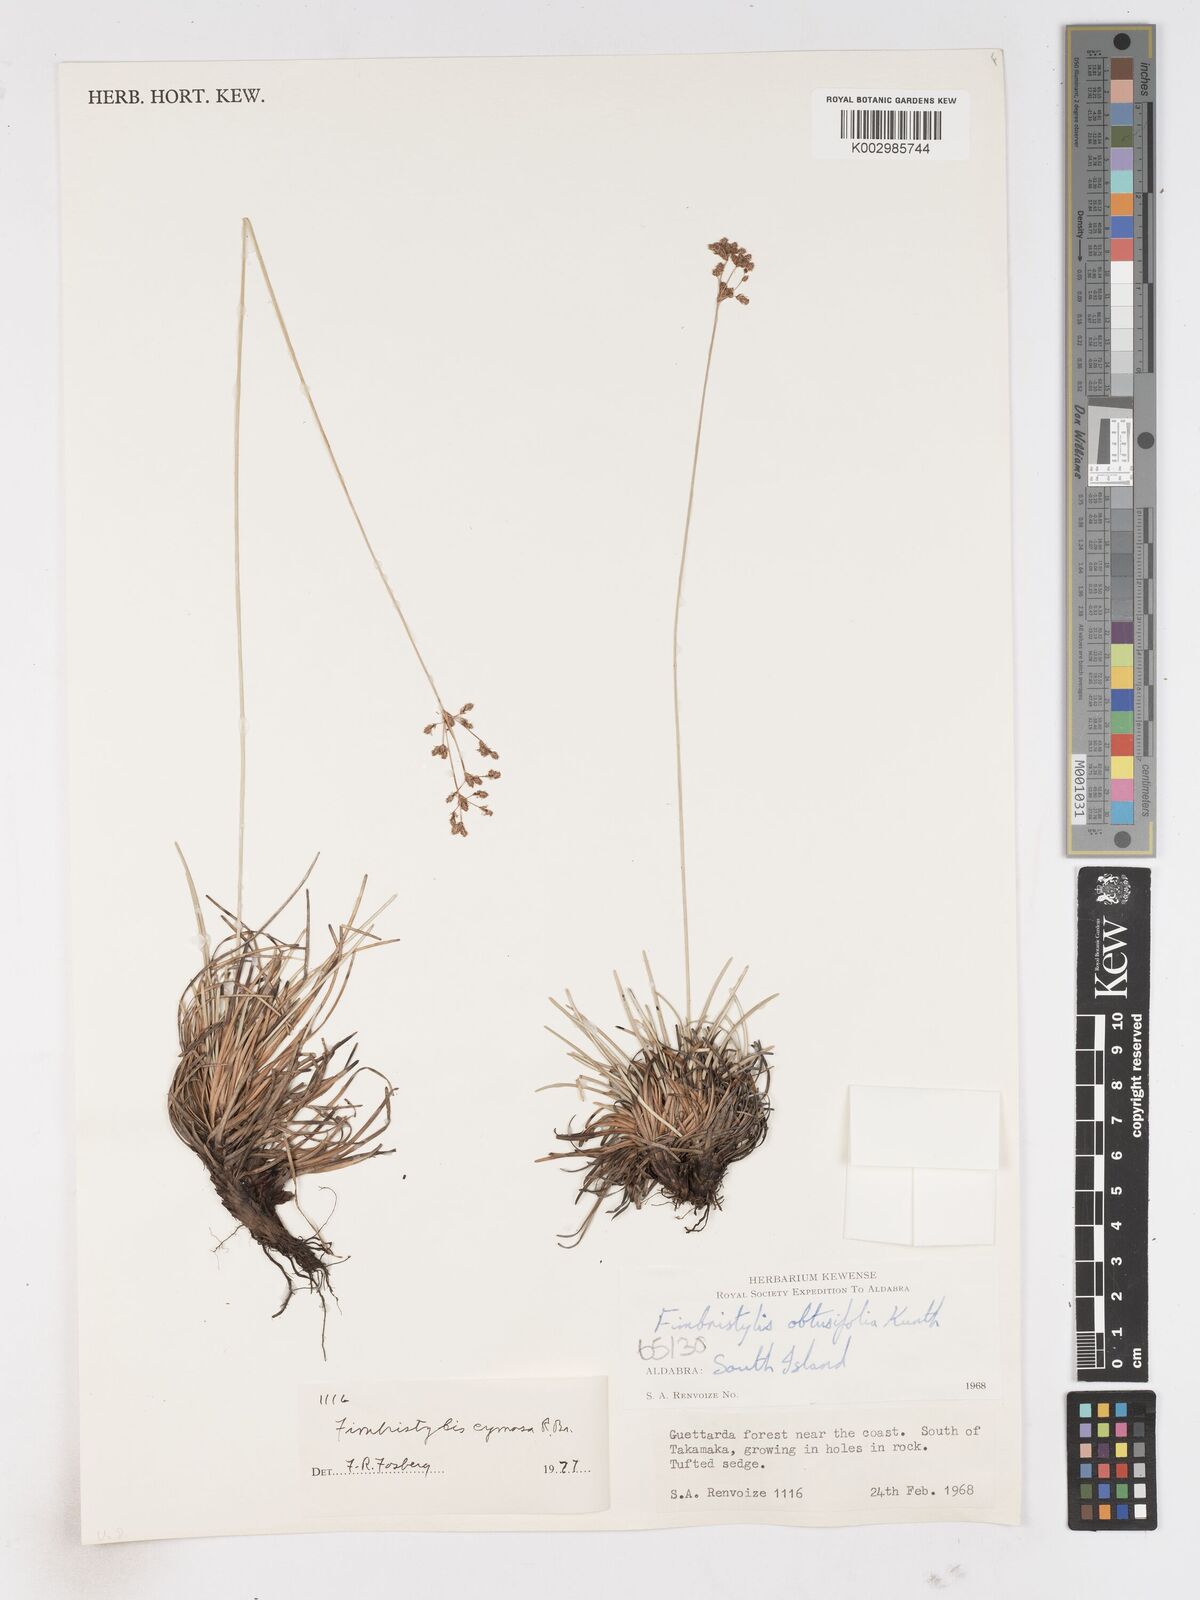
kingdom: Plantae
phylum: Tracheophyta
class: Liliopsida
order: Poales
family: Cyperaceae
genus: Fimbristylis
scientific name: Fimbristylis cymosa
